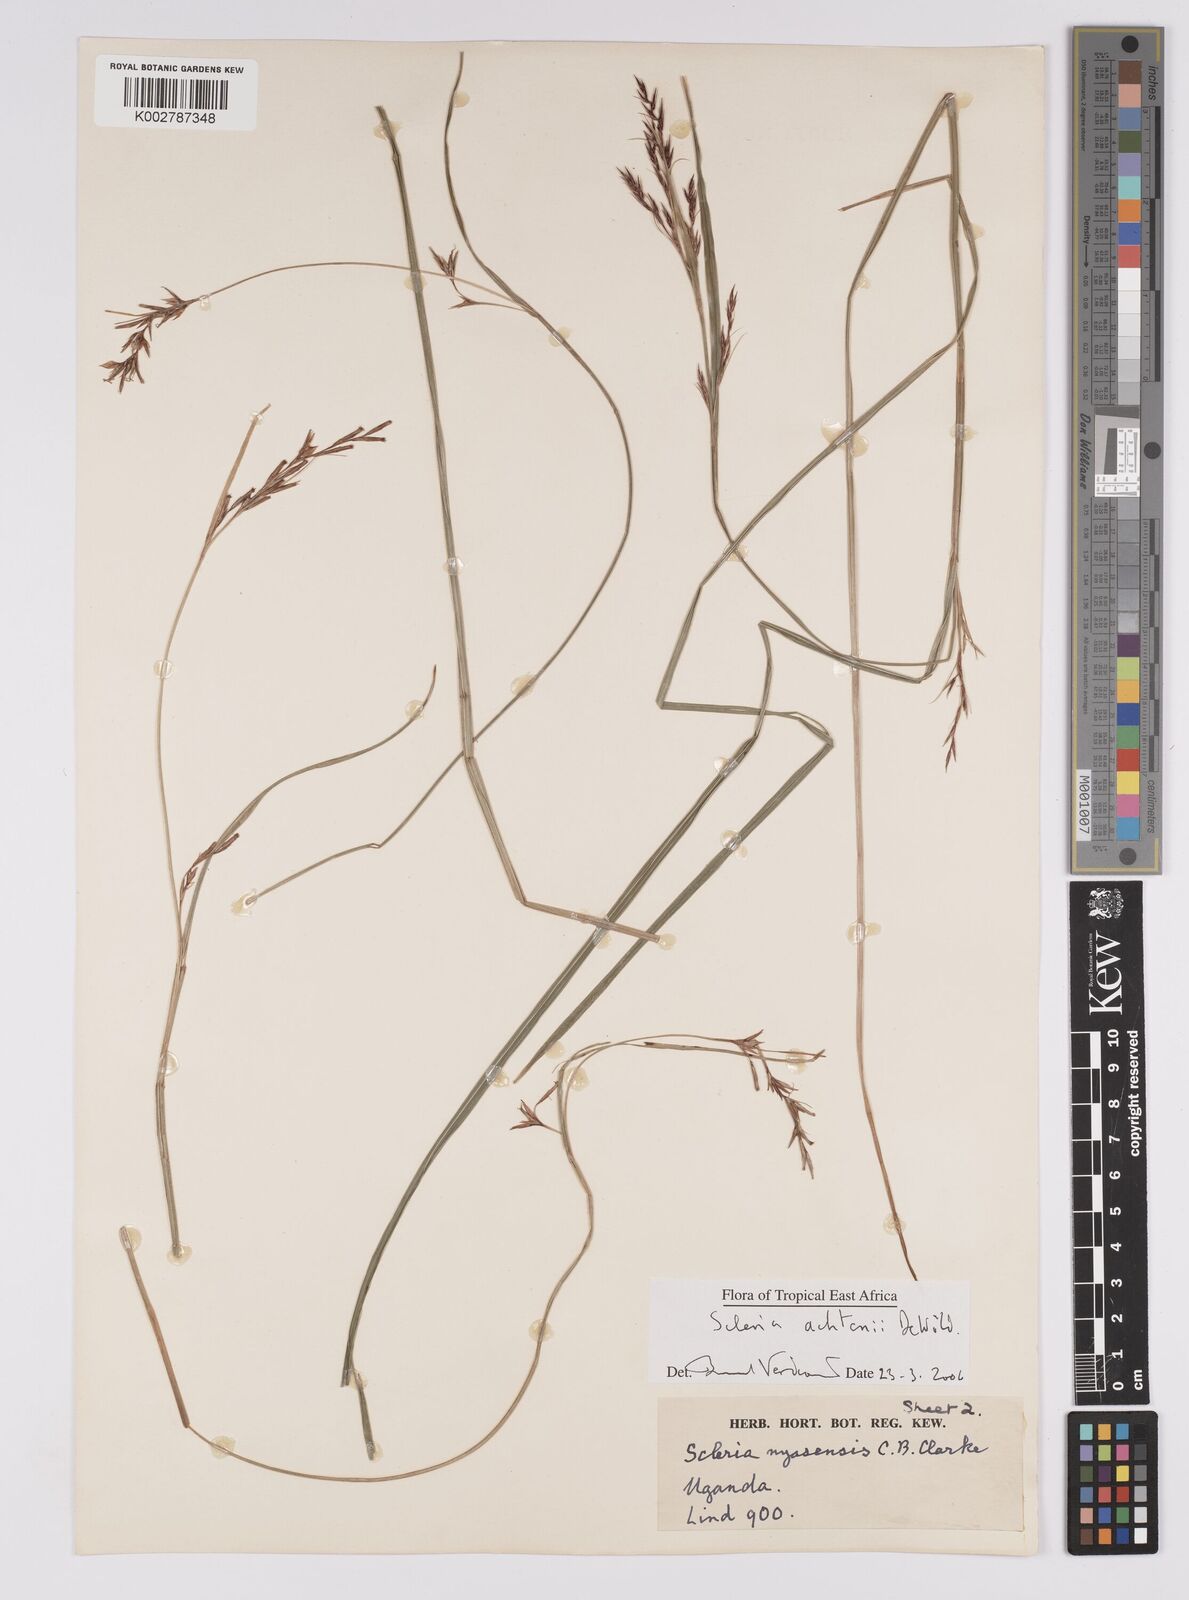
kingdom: Plantae
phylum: Tracheophyta
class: Liliopsida
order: Poales
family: Cyperaceae
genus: Scleria
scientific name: Scleria achtenii
